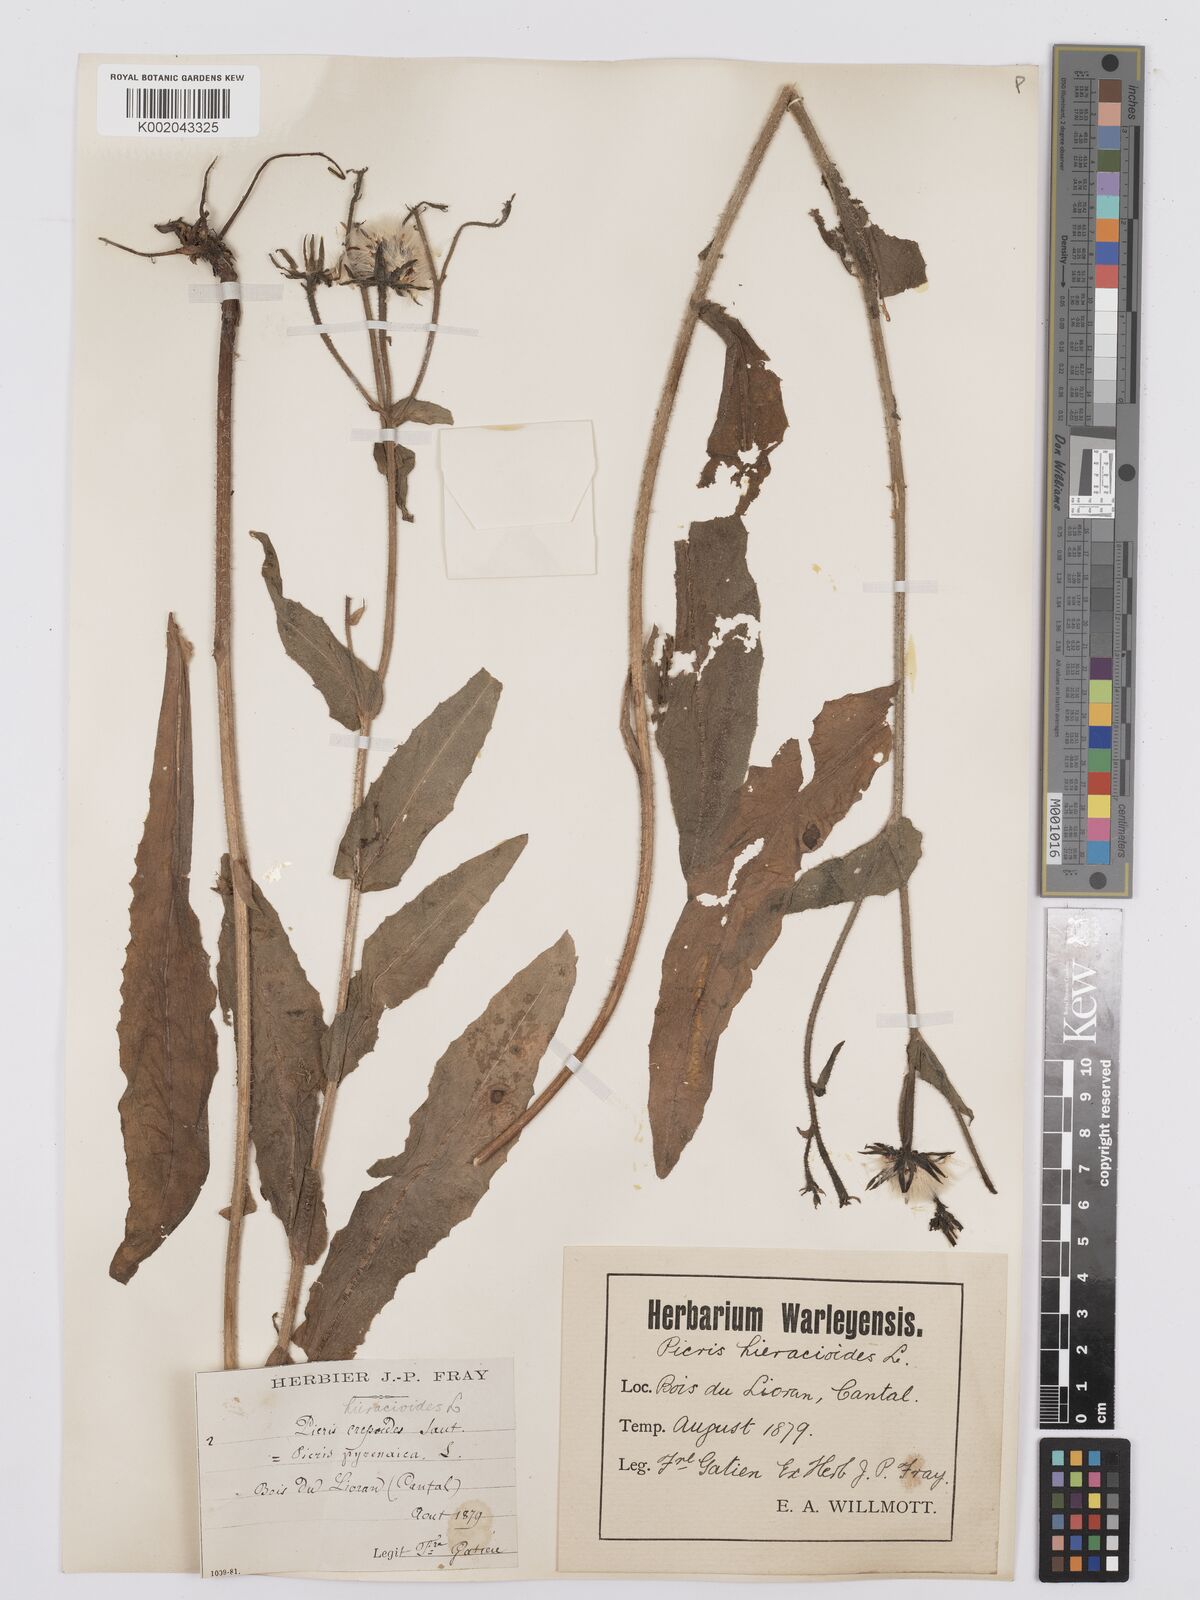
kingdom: Plantae
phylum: Tracheophyta
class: Magnoliopsida
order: Asterales
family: Asteraceae
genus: Picris
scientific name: Picris hieracioides
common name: Hawkweed oxtongue
